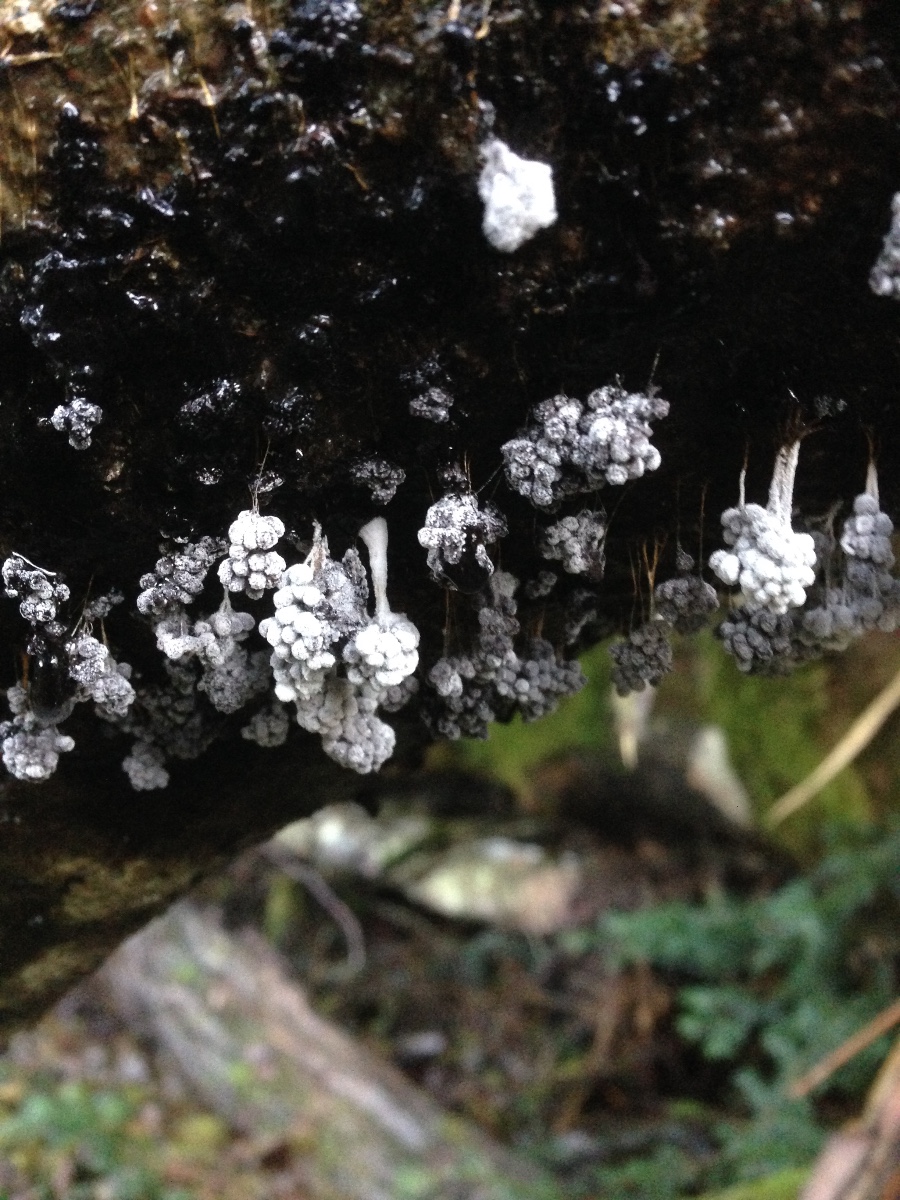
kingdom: Protozoa
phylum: Mycetozoa
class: Myxomycetes
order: Physarales
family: Physaraceae
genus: Badhamia
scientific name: Badhamia utricularis
